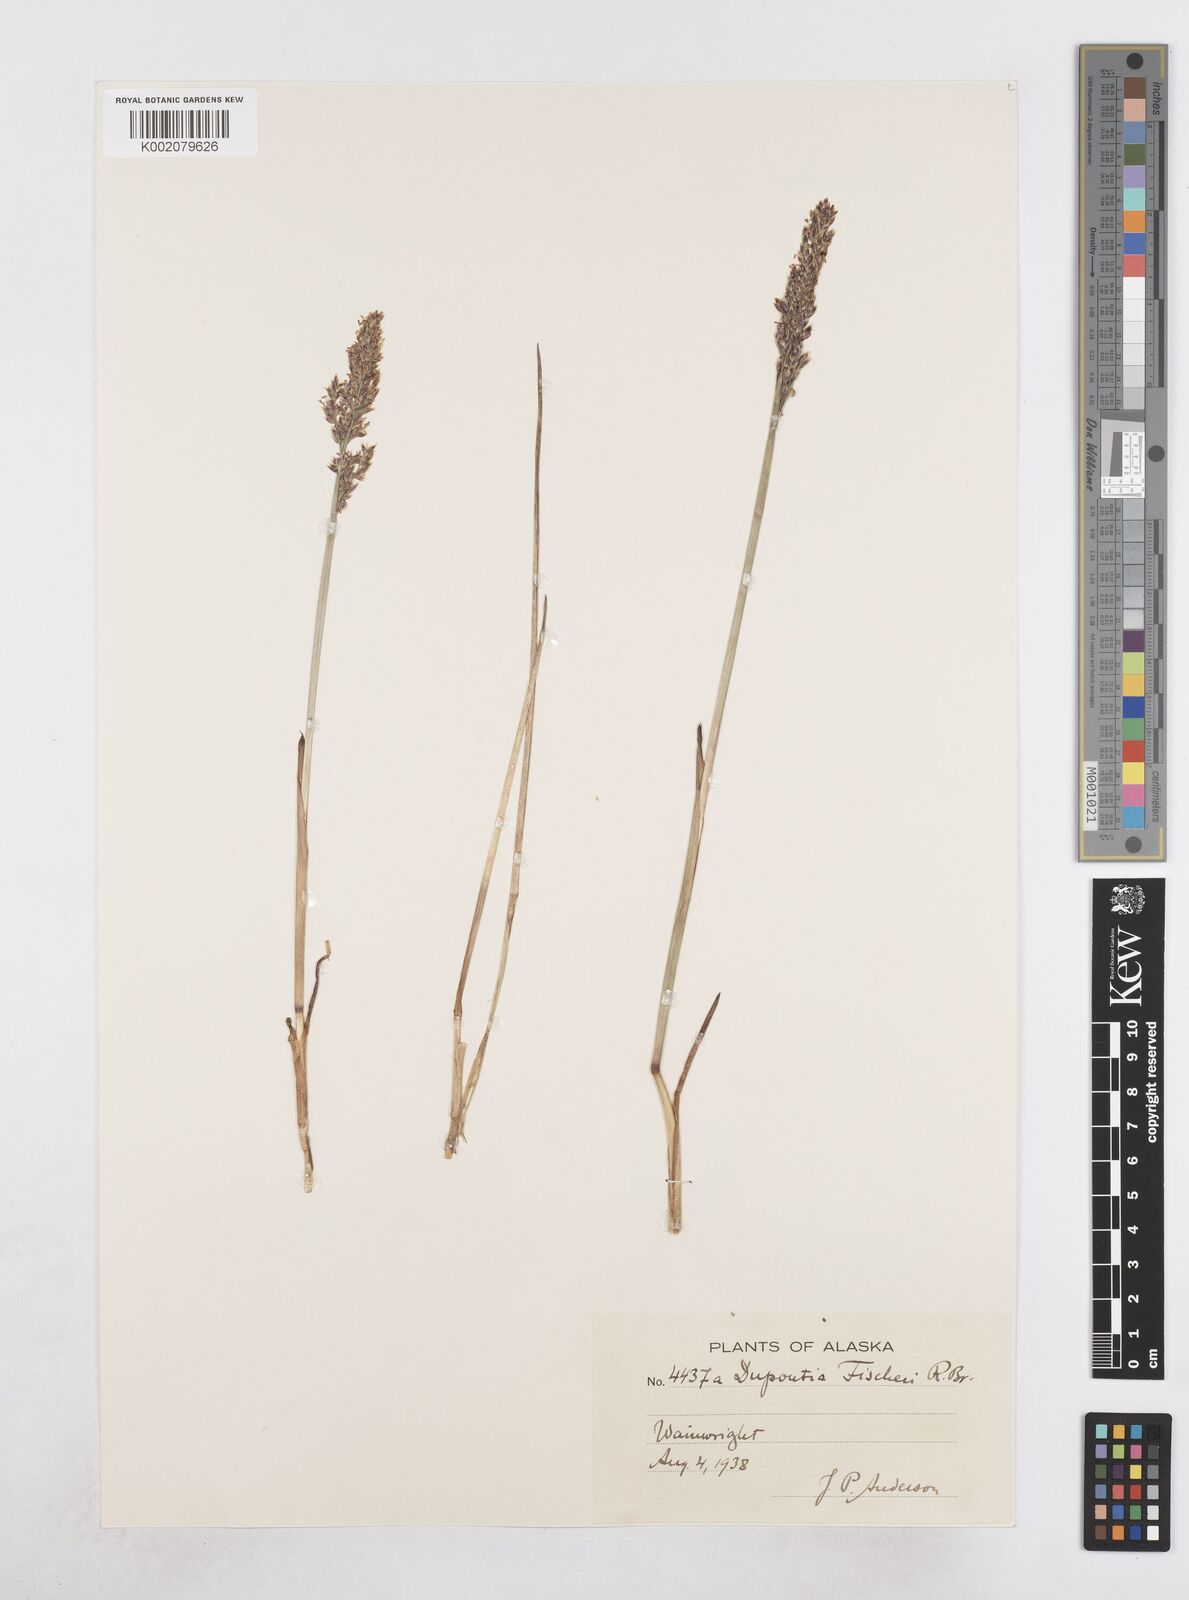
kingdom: Plantae
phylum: Tracheophyta
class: Liliopsida
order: Poales
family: Poaceae
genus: Dupontia
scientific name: Dupontia fisheri
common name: Tundra grass
